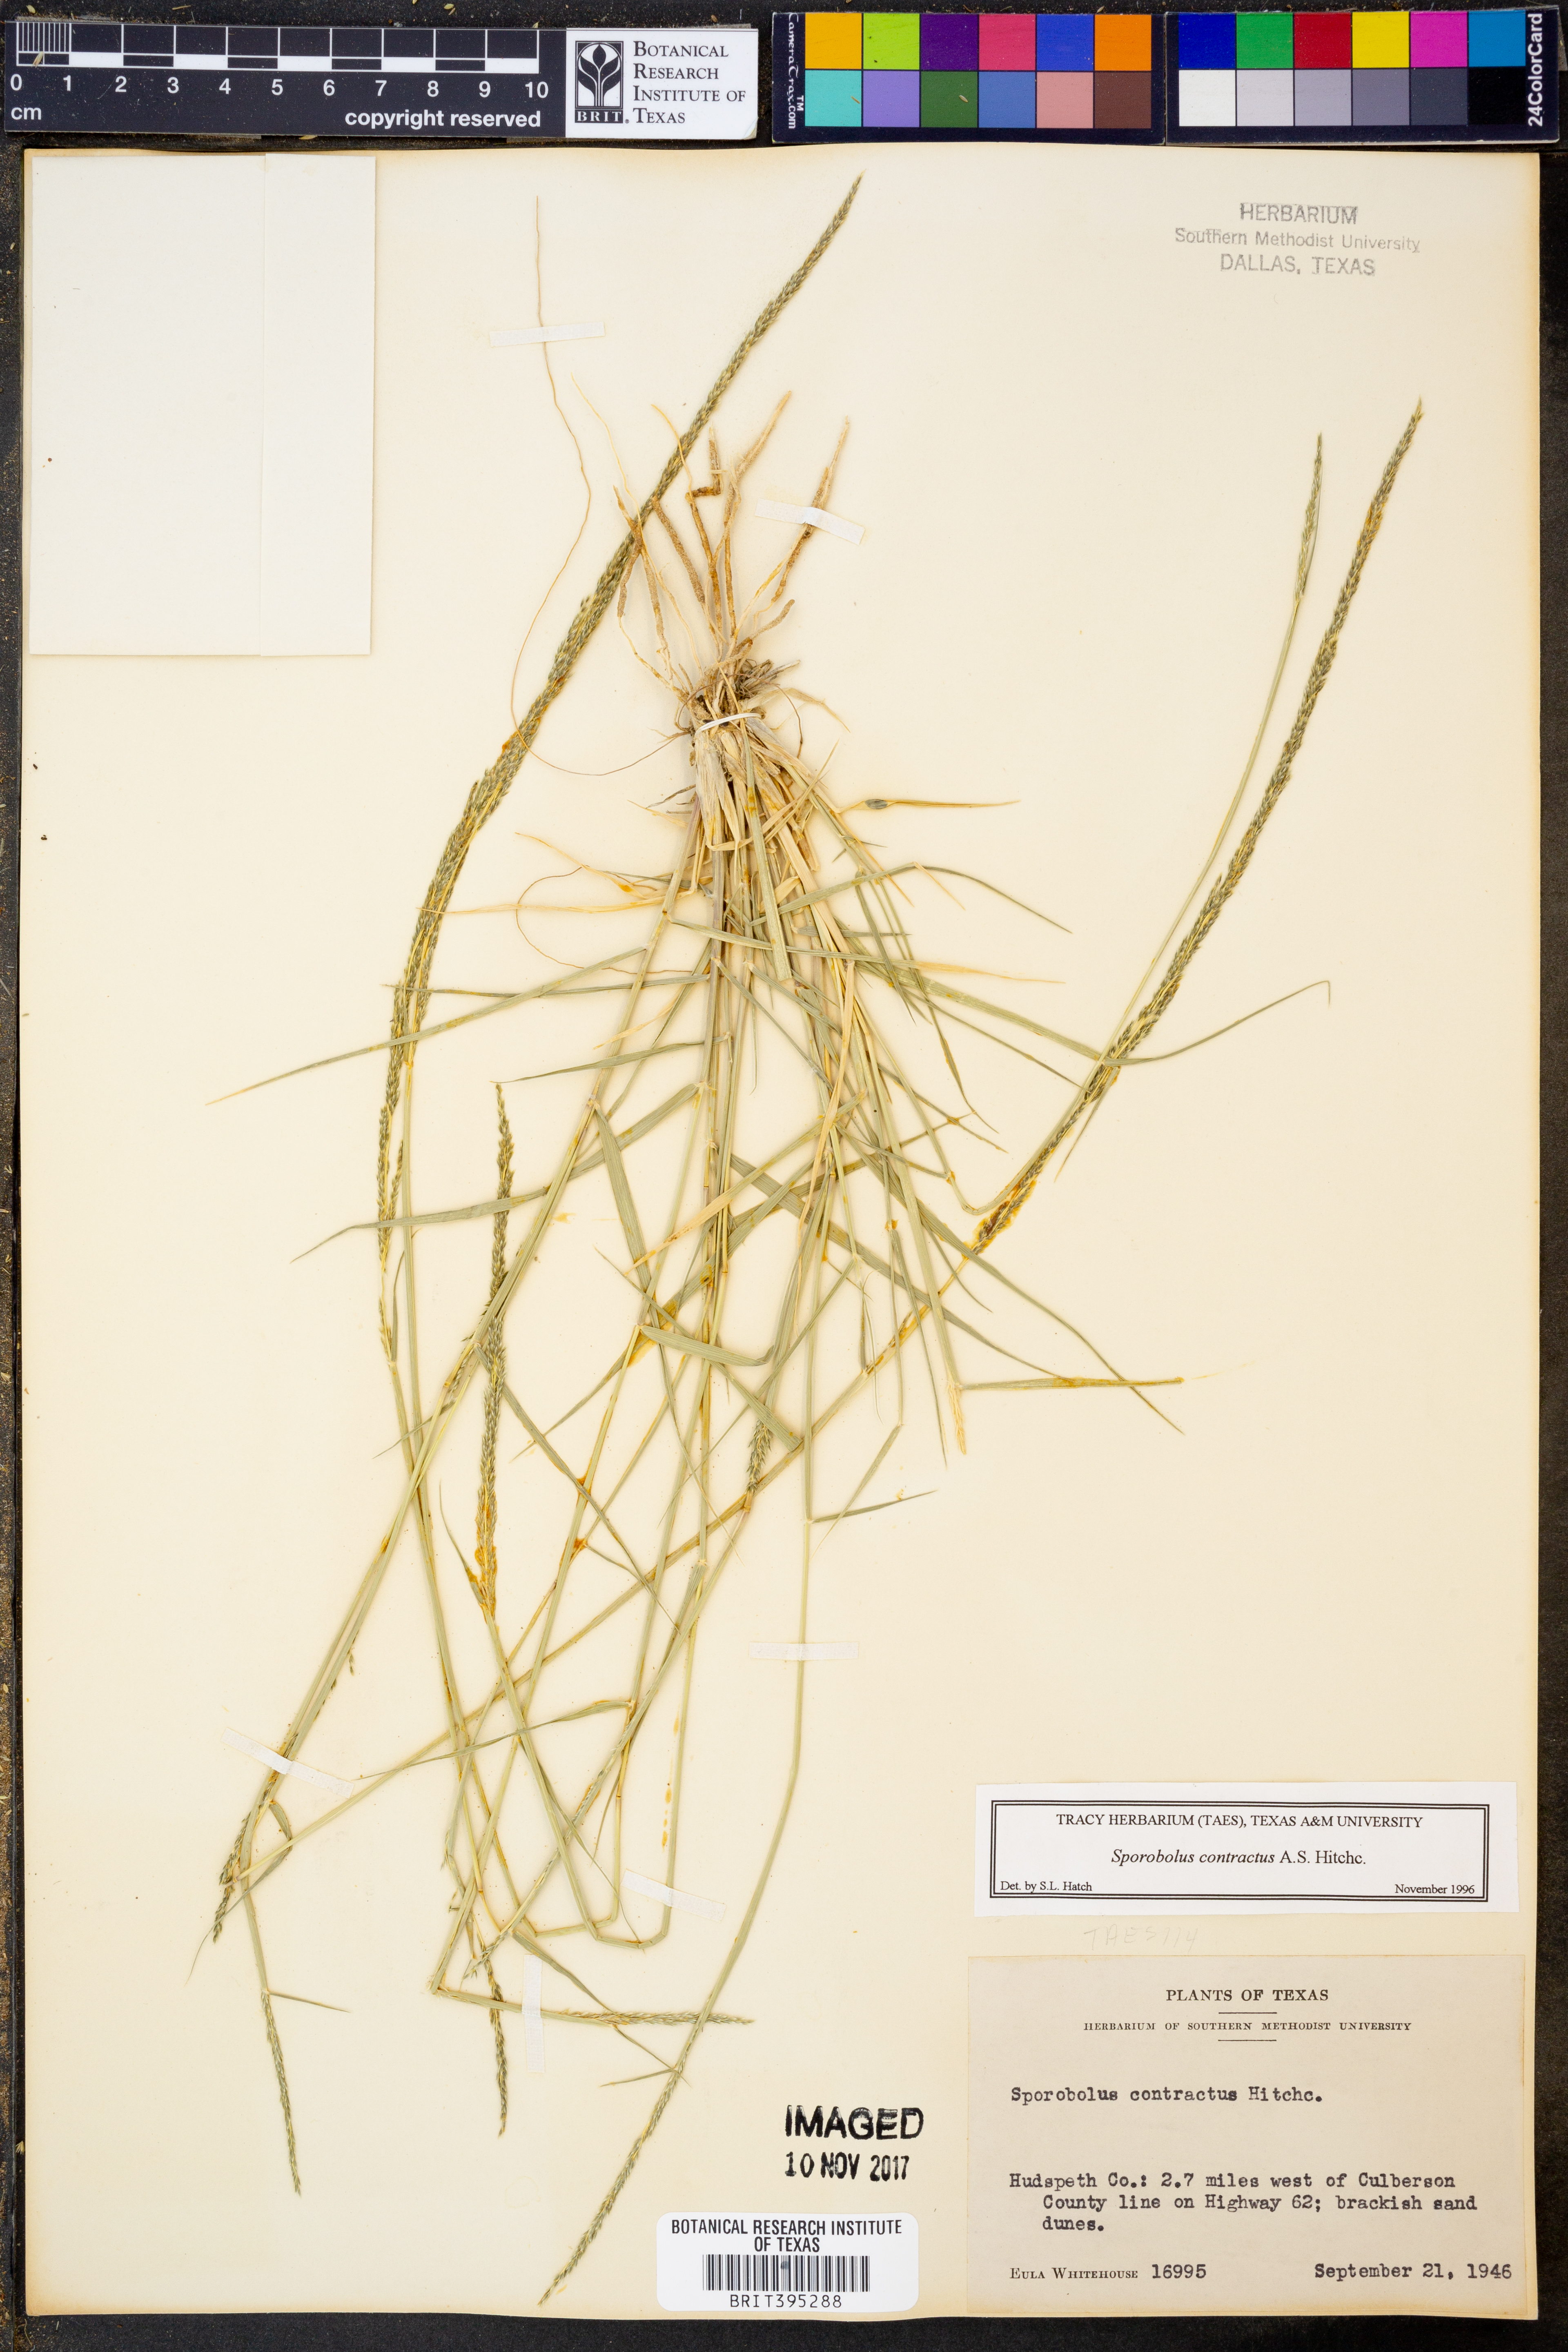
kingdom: Plantae
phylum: Tracheophyta
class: Liliopsida
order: Poales
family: Poaceae
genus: Sporobolus
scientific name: Sporobolus contractus
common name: Spike dropseed
